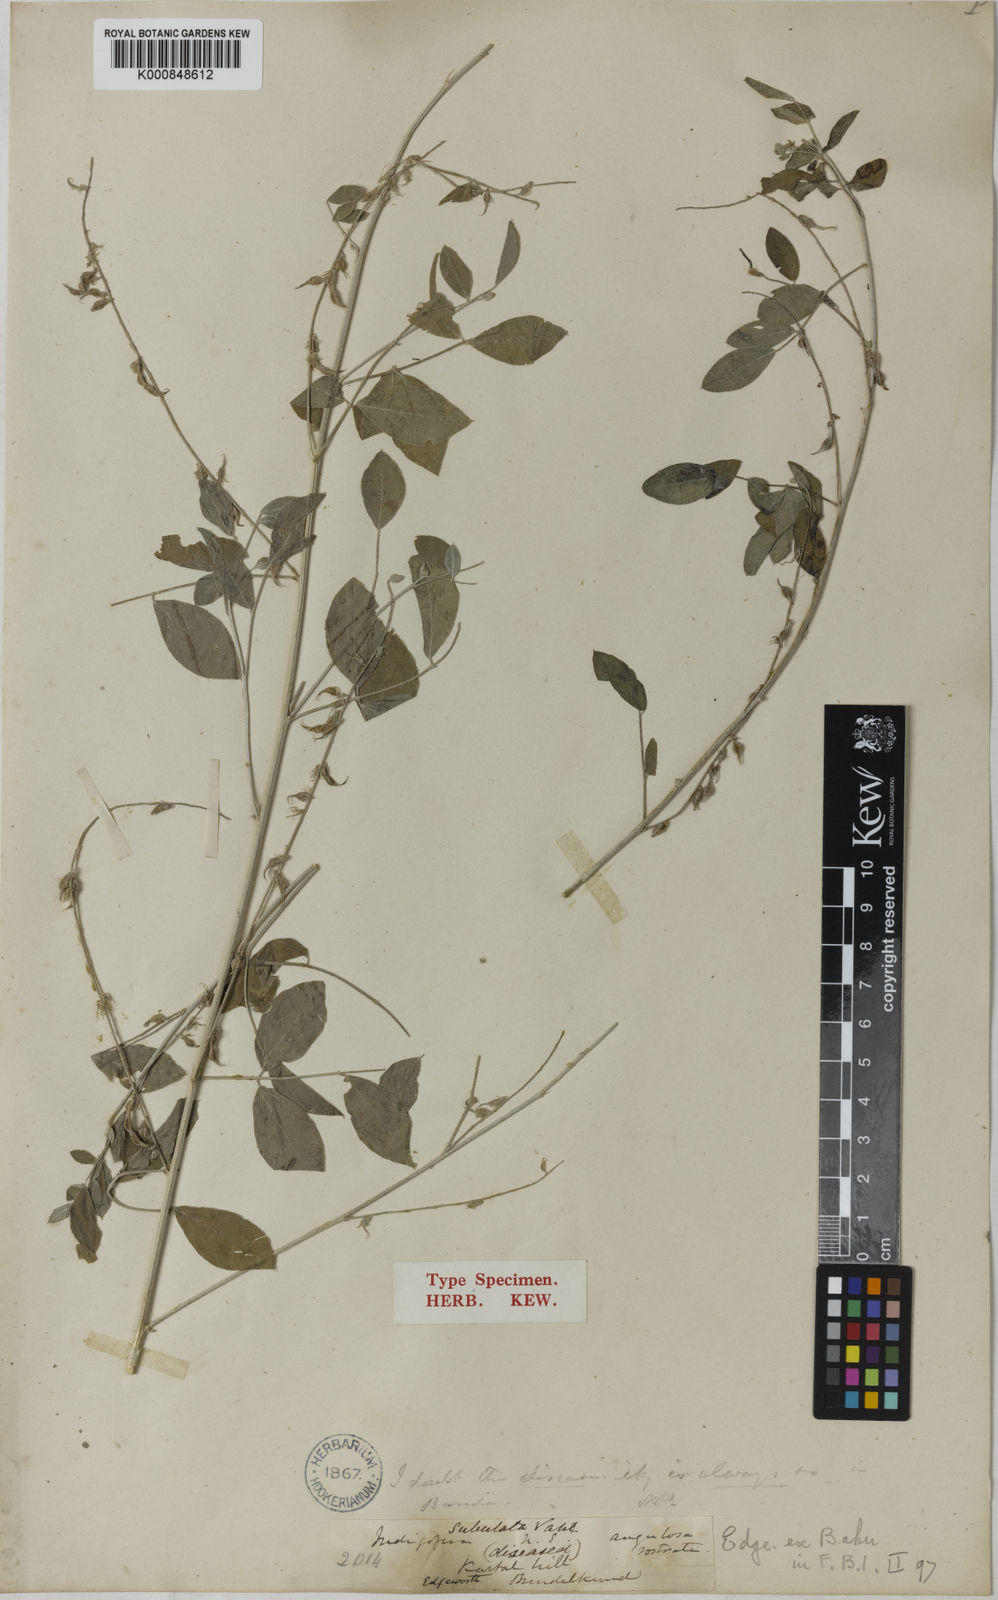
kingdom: Plantae
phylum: Tracheophyta
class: Magnoliopsida
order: Fabales
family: Fabaceae
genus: Indigofera
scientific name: Indigofera angulosa
